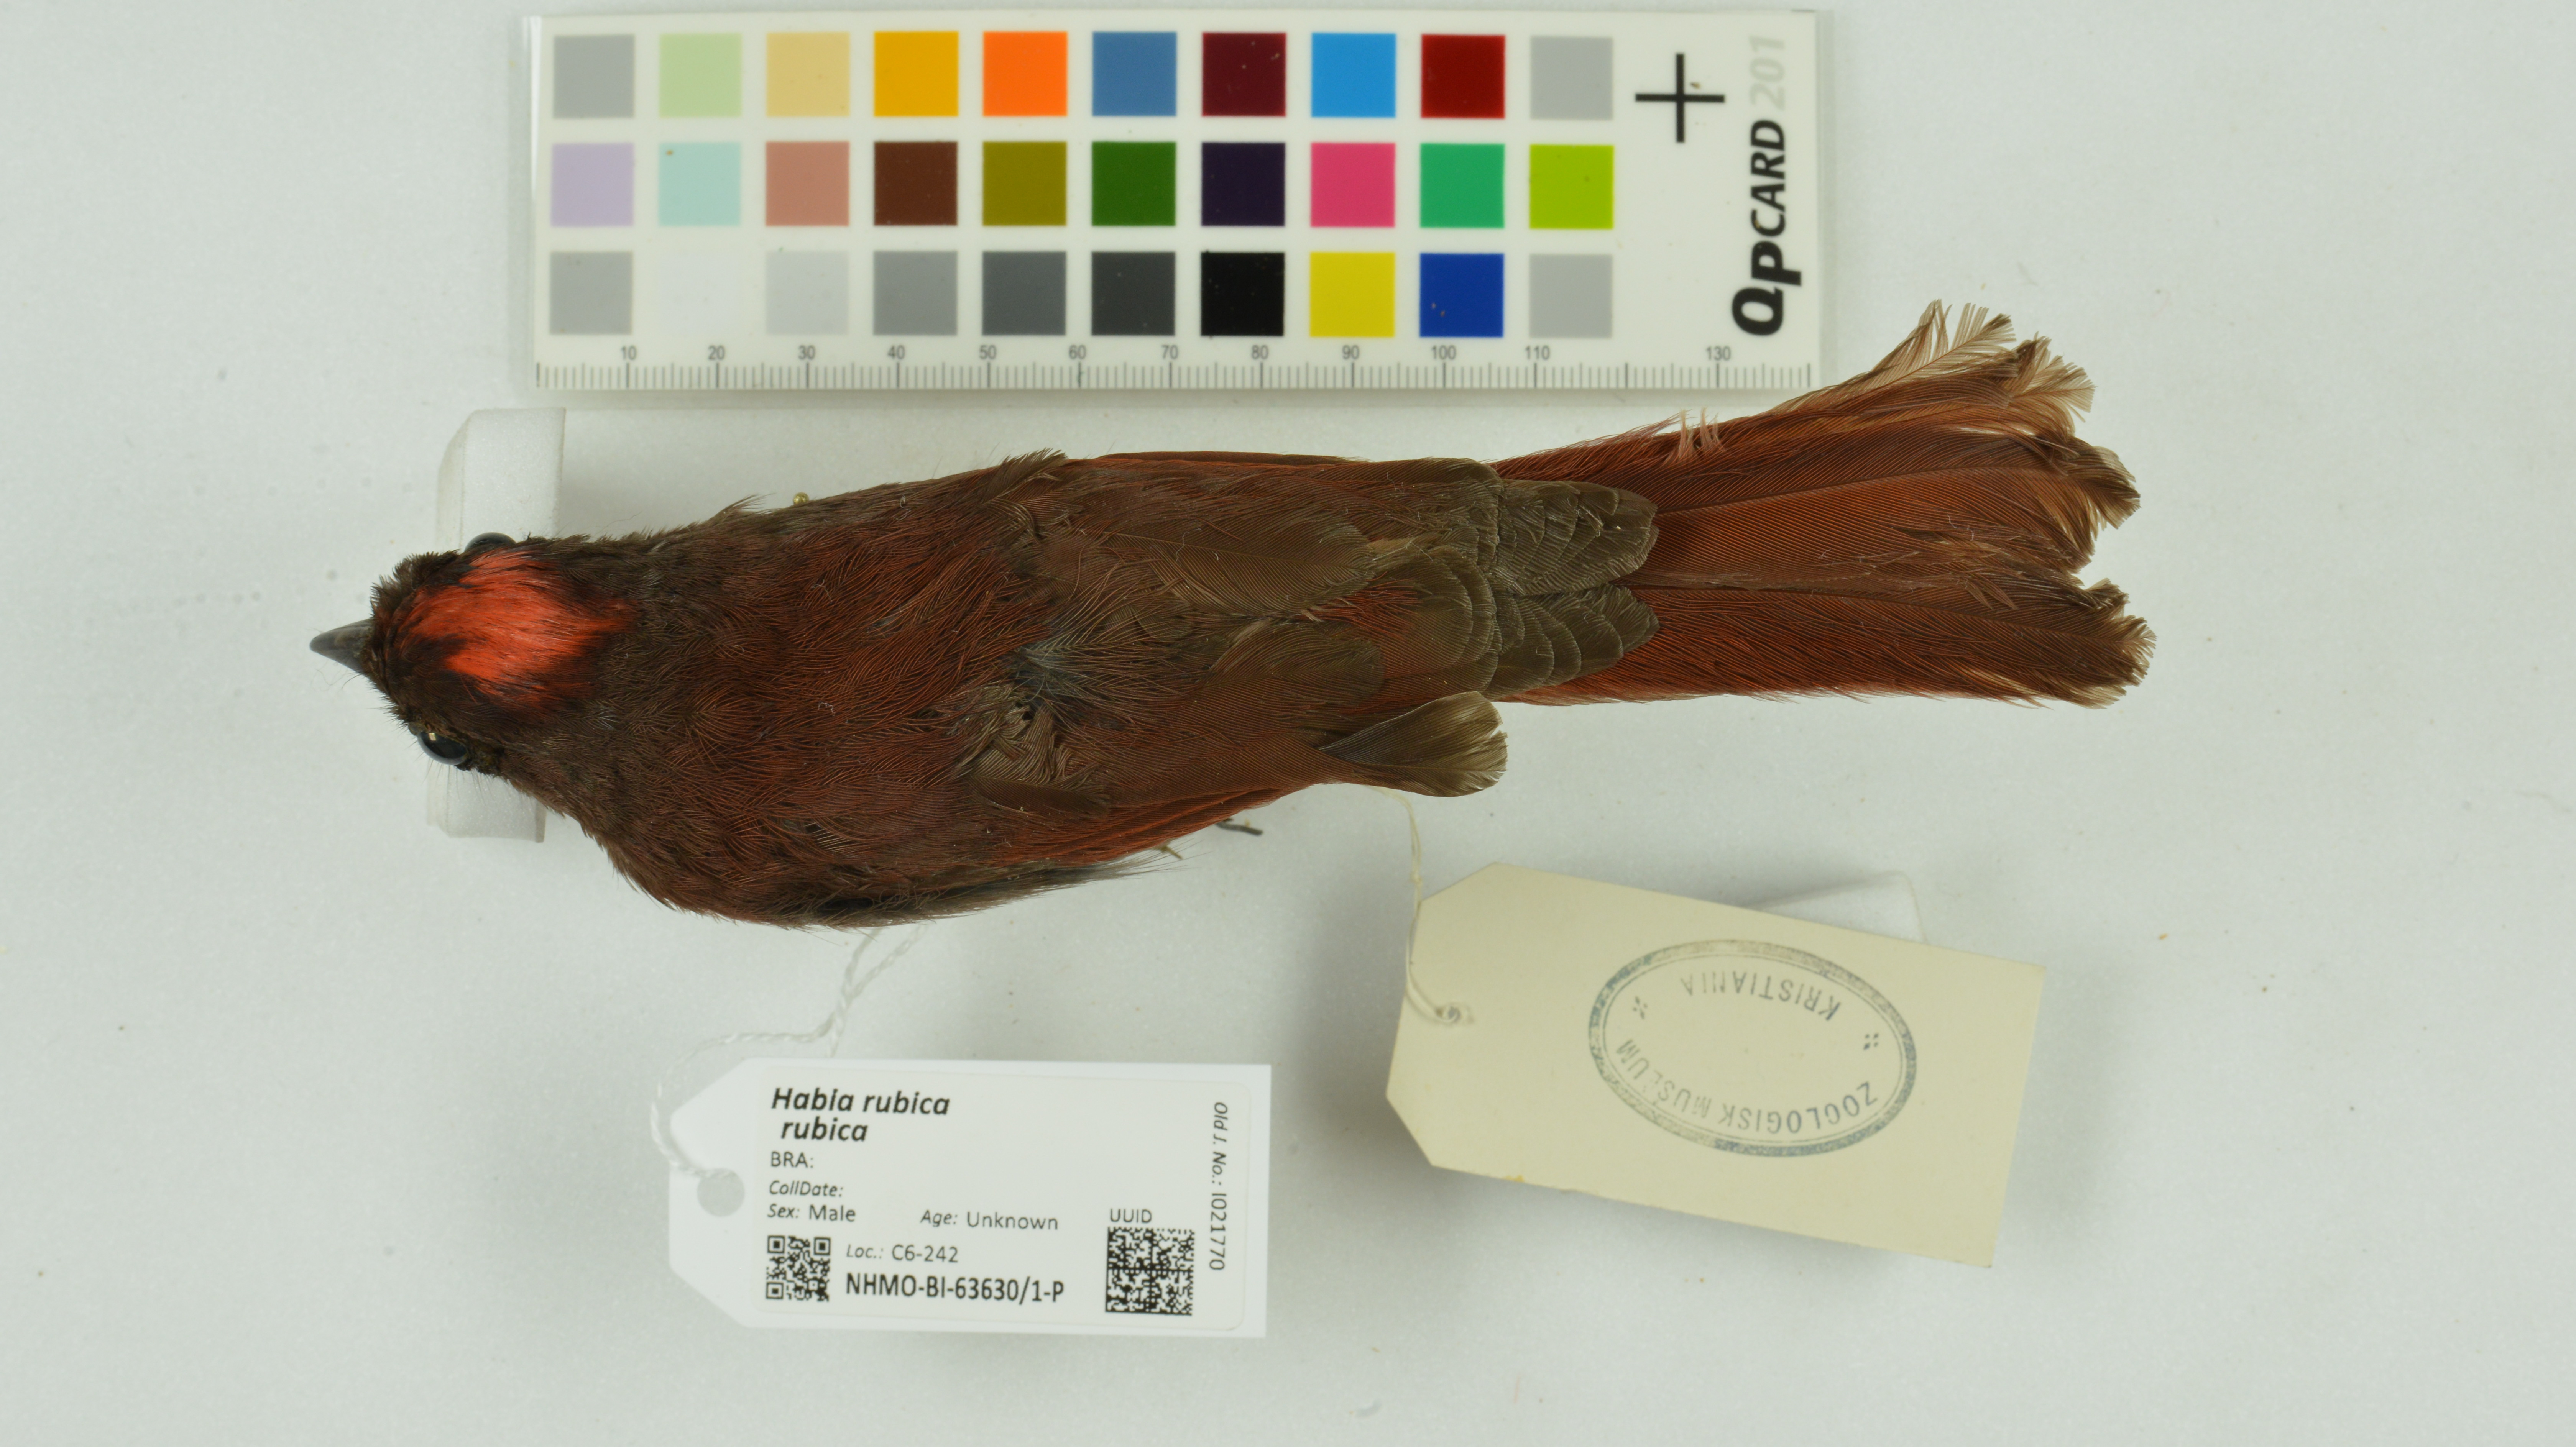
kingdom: Animalia
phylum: Chordata
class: Aves
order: Passeriformes
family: Cardinalidae
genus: Habia
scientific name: Habia rubica
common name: Red-crowned ant-tanager
